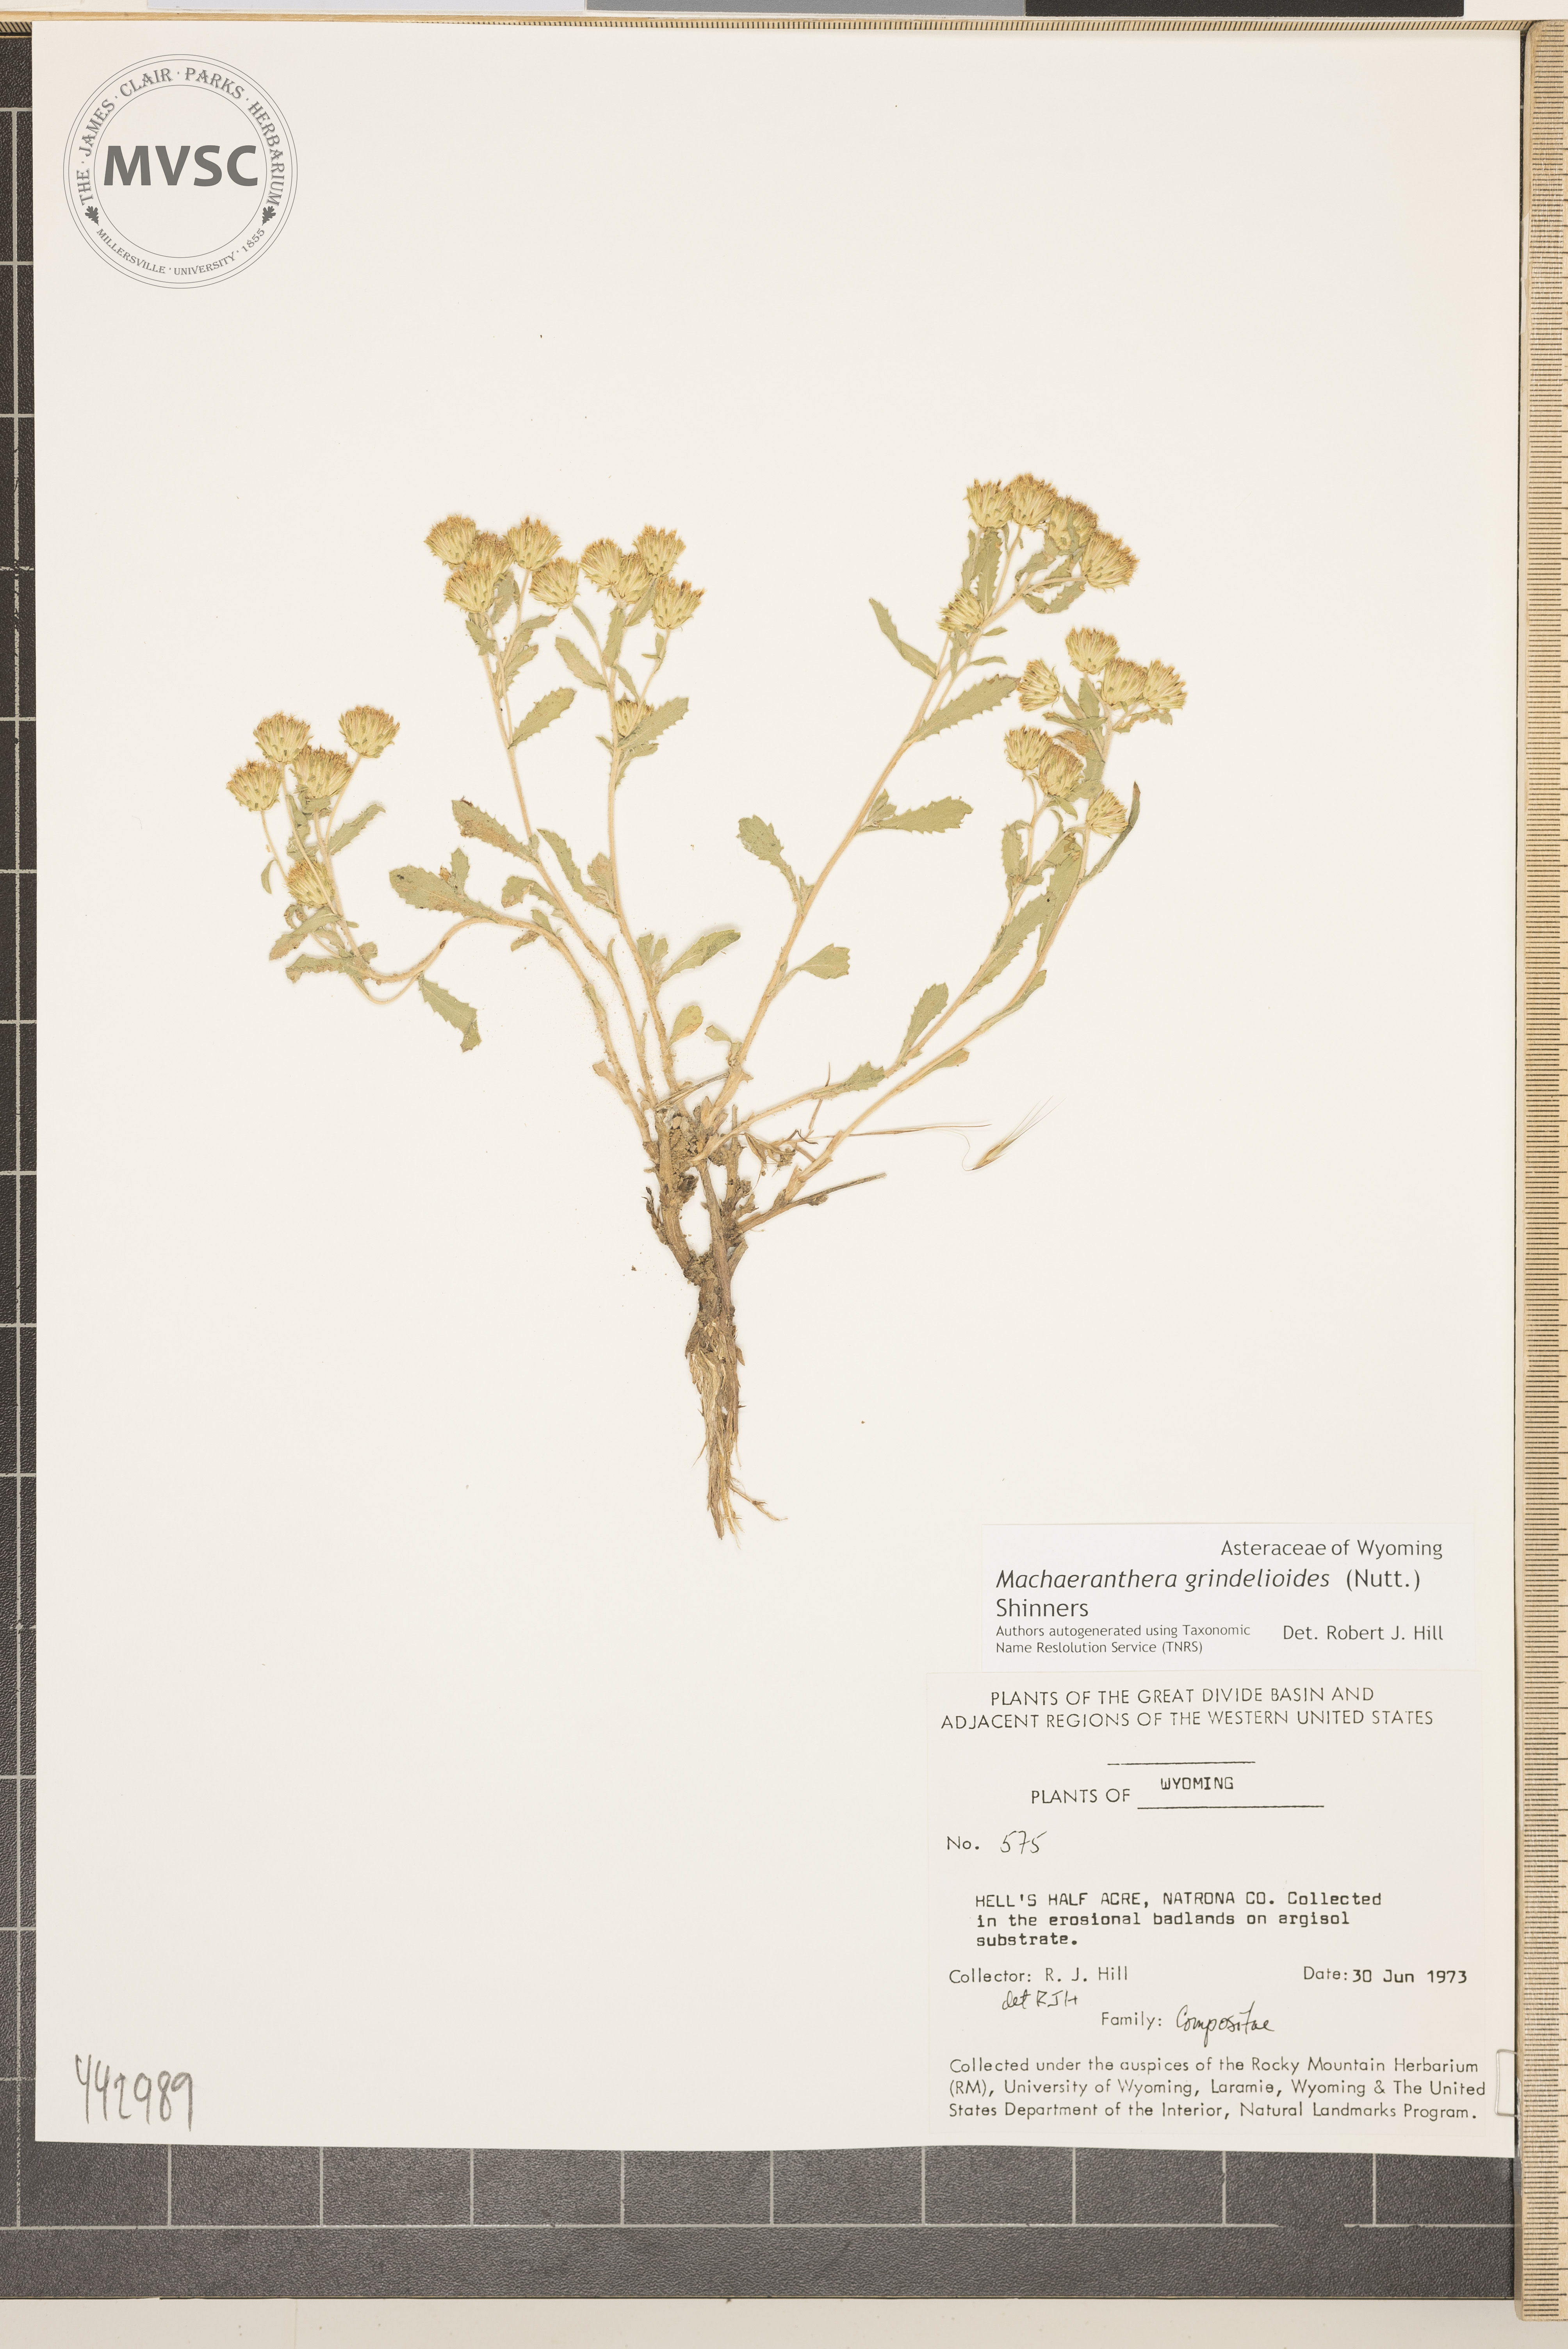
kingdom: Plantae
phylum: Tracheophyta
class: Magnoliopsida
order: Asterales
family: Asteraceae
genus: Xanthisma
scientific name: Xanthisma grindelioides
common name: Goldenweed
